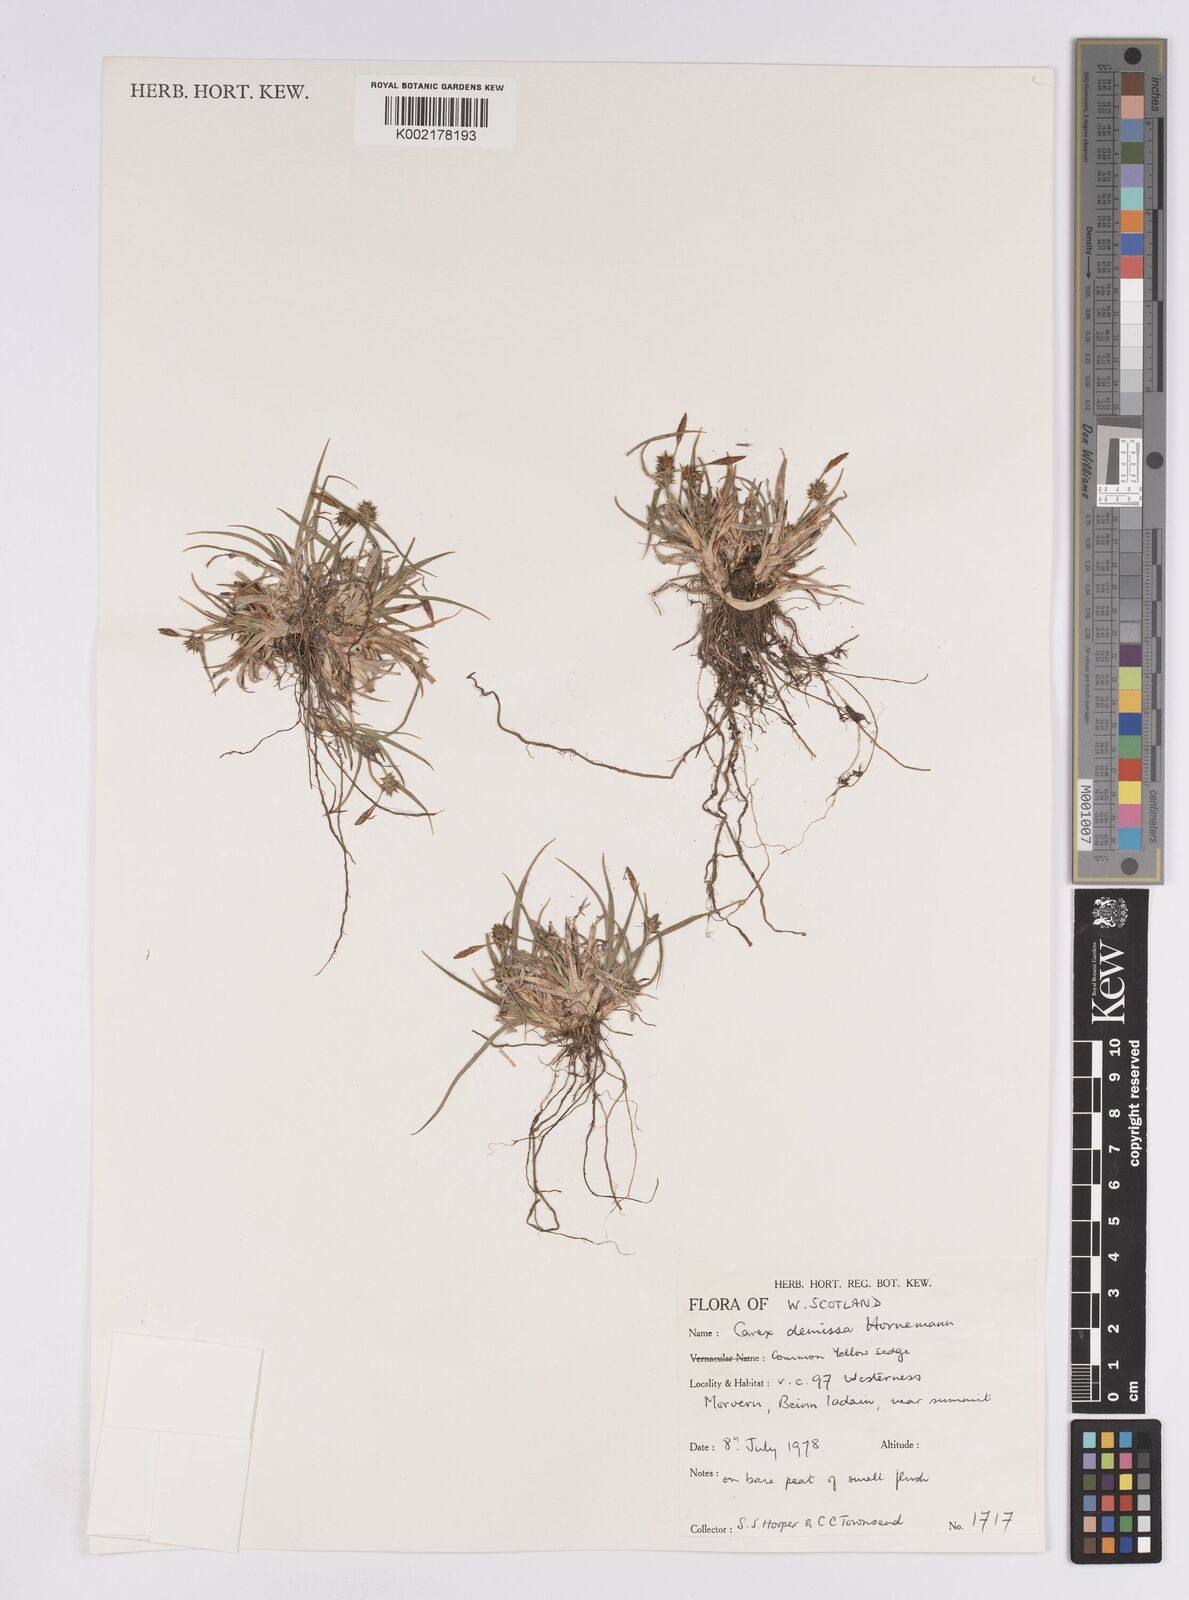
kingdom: Plantae
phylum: Tracheophyta
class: Liliopsida
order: Poales
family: Cyperaceae
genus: Carex
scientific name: Carex demissa
